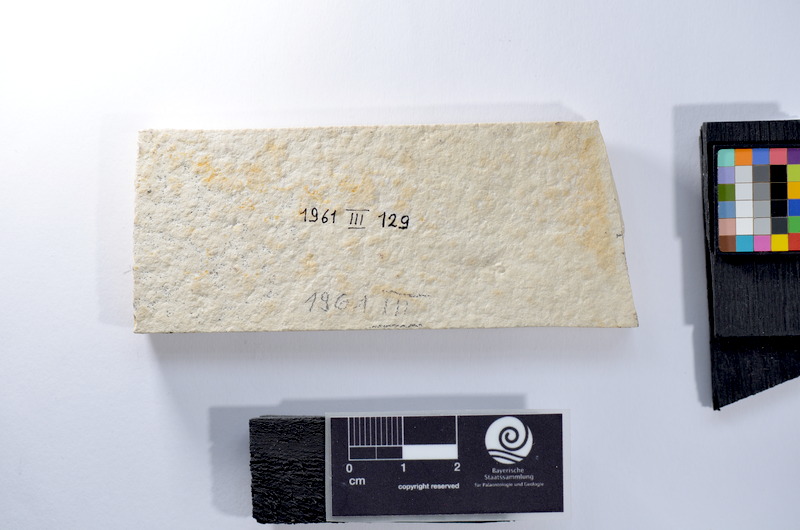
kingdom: Animalia
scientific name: Animalia
